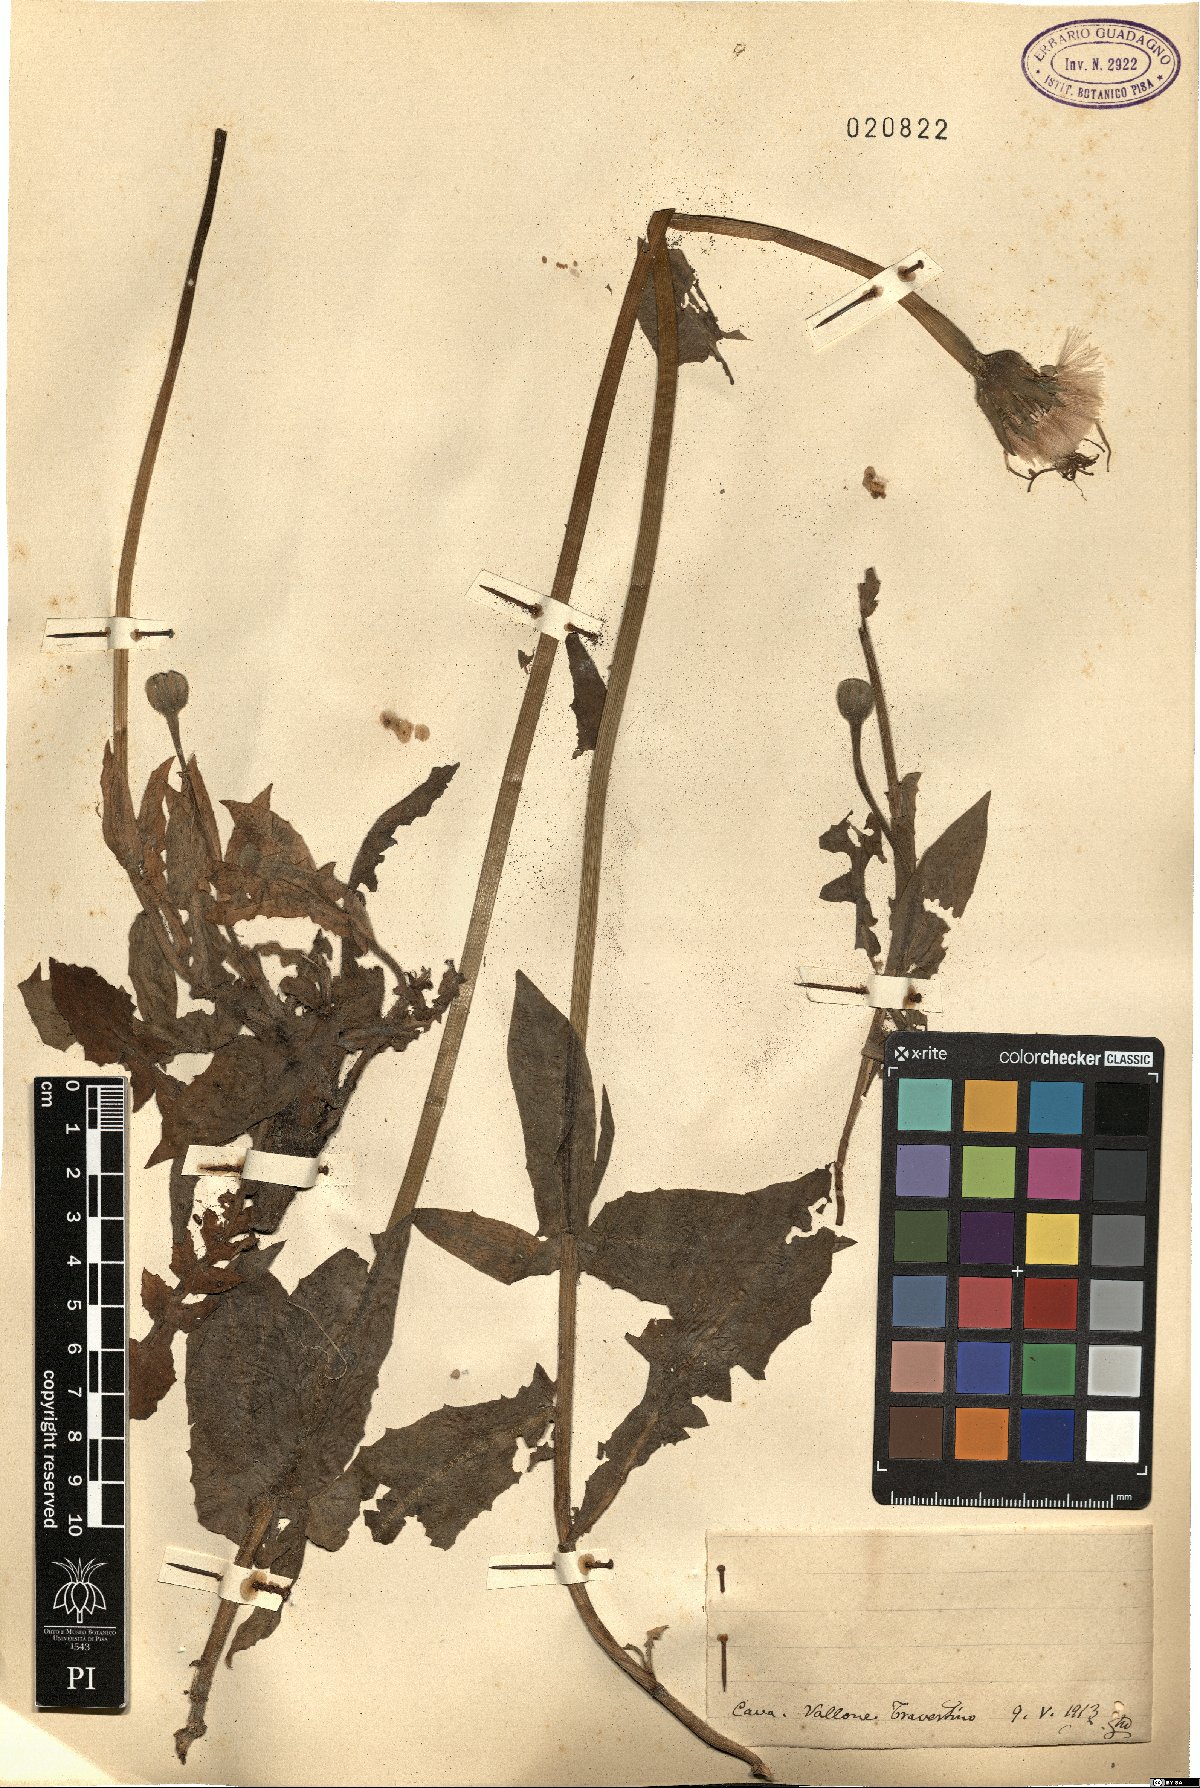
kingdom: Plantae
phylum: Tracheophyta
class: Magnoliopsida
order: Asterales
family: Asteraceae
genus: Urospermum
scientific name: Urospermum
